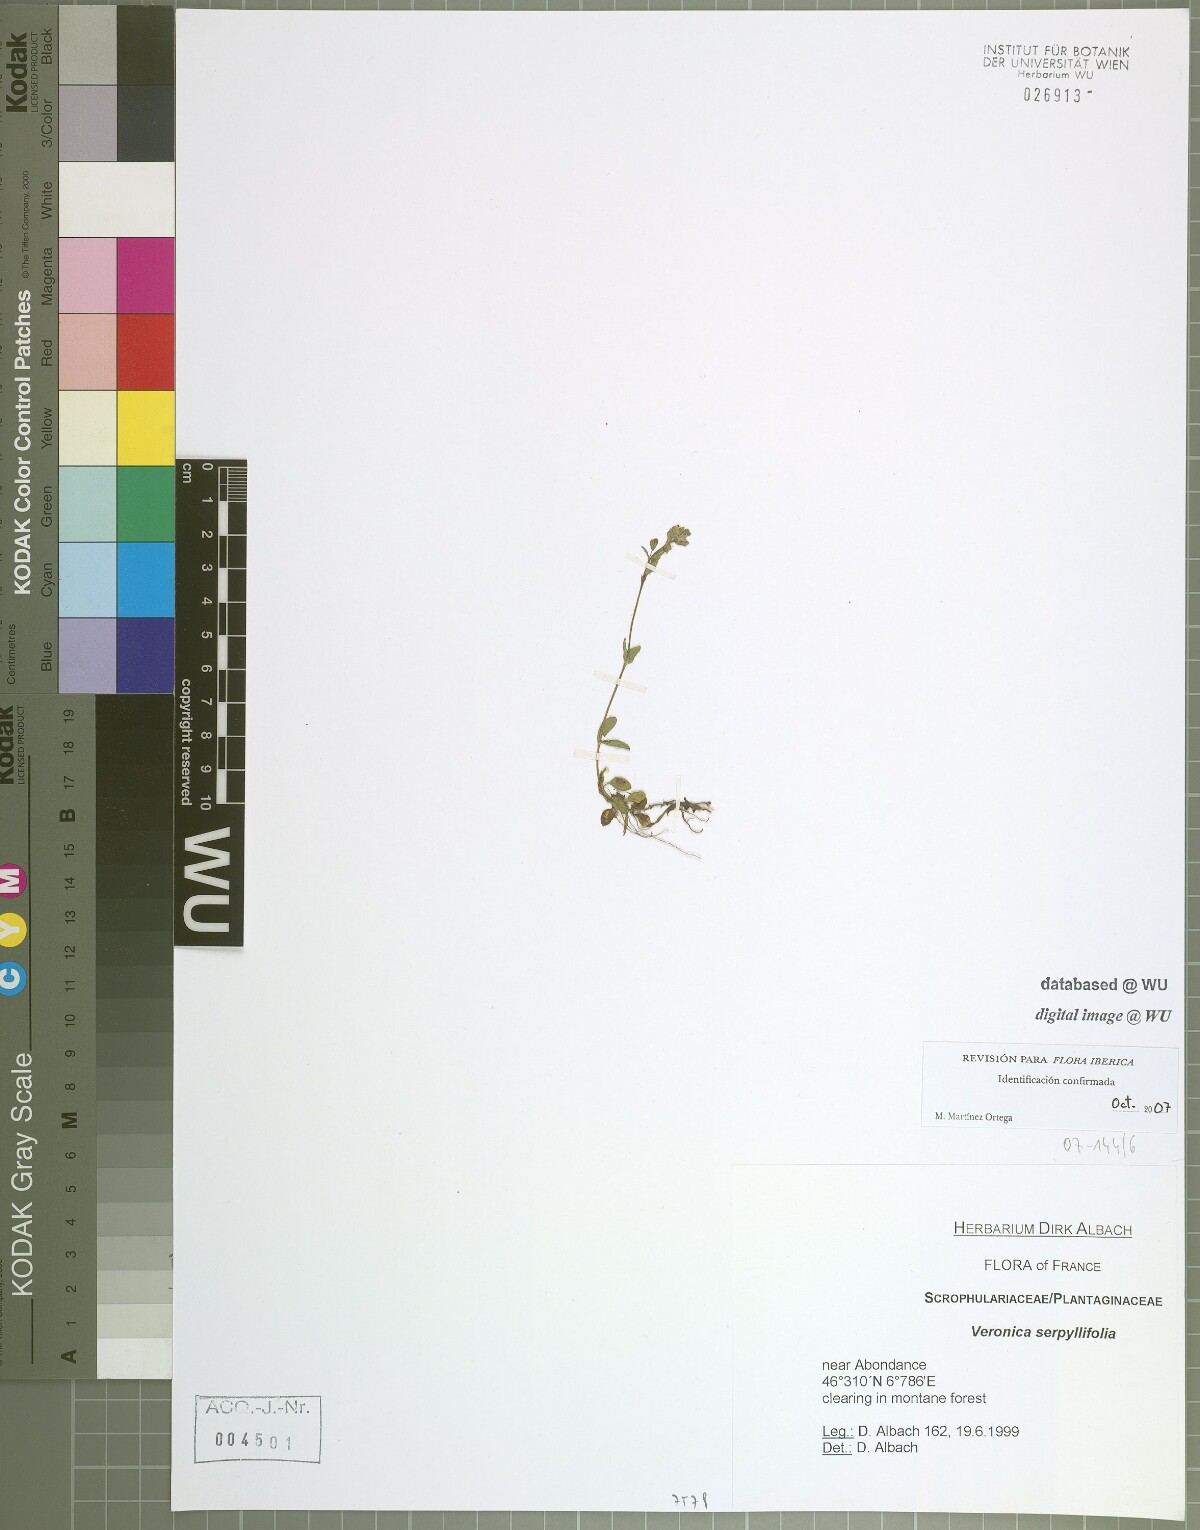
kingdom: Plantae
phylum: Tracheophyta
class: Magnoliopsida
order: Lamiales
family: Plantaginaceae
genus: Veronica
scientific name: Veronica serpyllifolia
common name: Thyme-leaved speedwell
